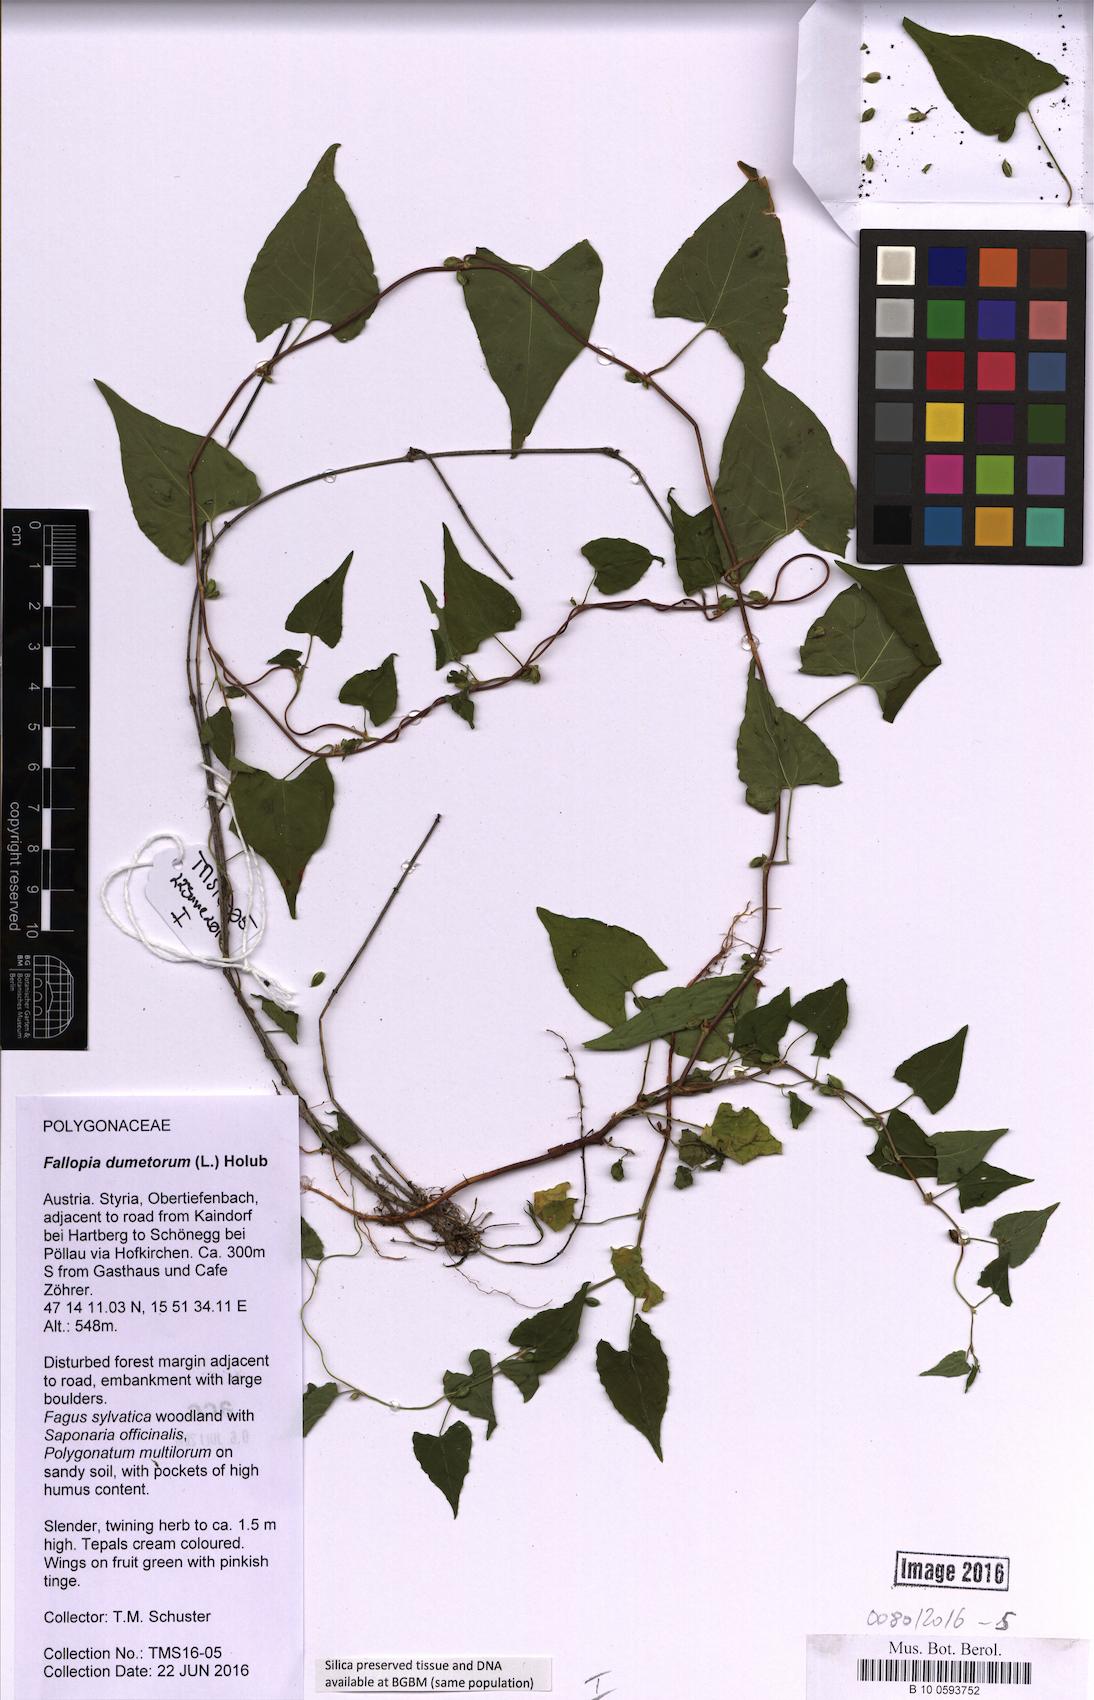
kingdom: Plantae
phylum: Tracheophyta
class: Magnoliopsida
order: Caryophyllales
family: Polygonaceae
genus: Fallopia
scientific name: Fallopia dumetorum
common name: Copse-bindweed
